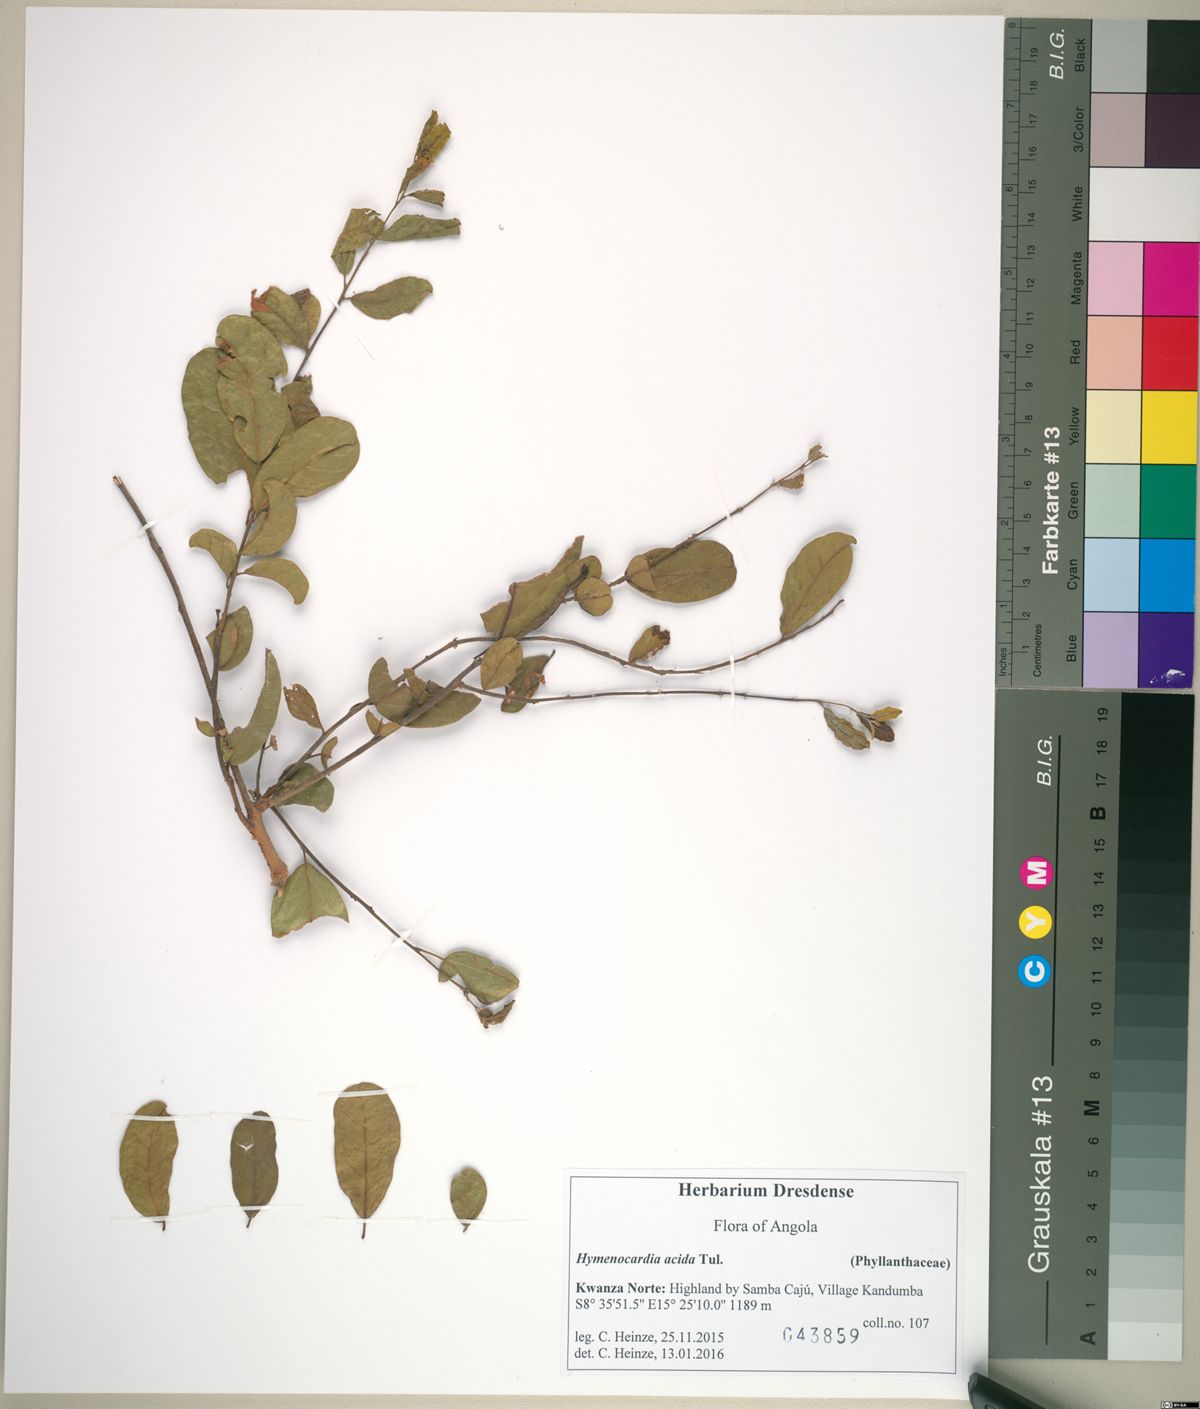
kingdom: Plantae
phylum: Tracheophyta
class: Magnoliopsida
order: Malpighiales
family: Phyllanthaceae
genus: Hymenocardia
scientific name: Hymenocardia acida
